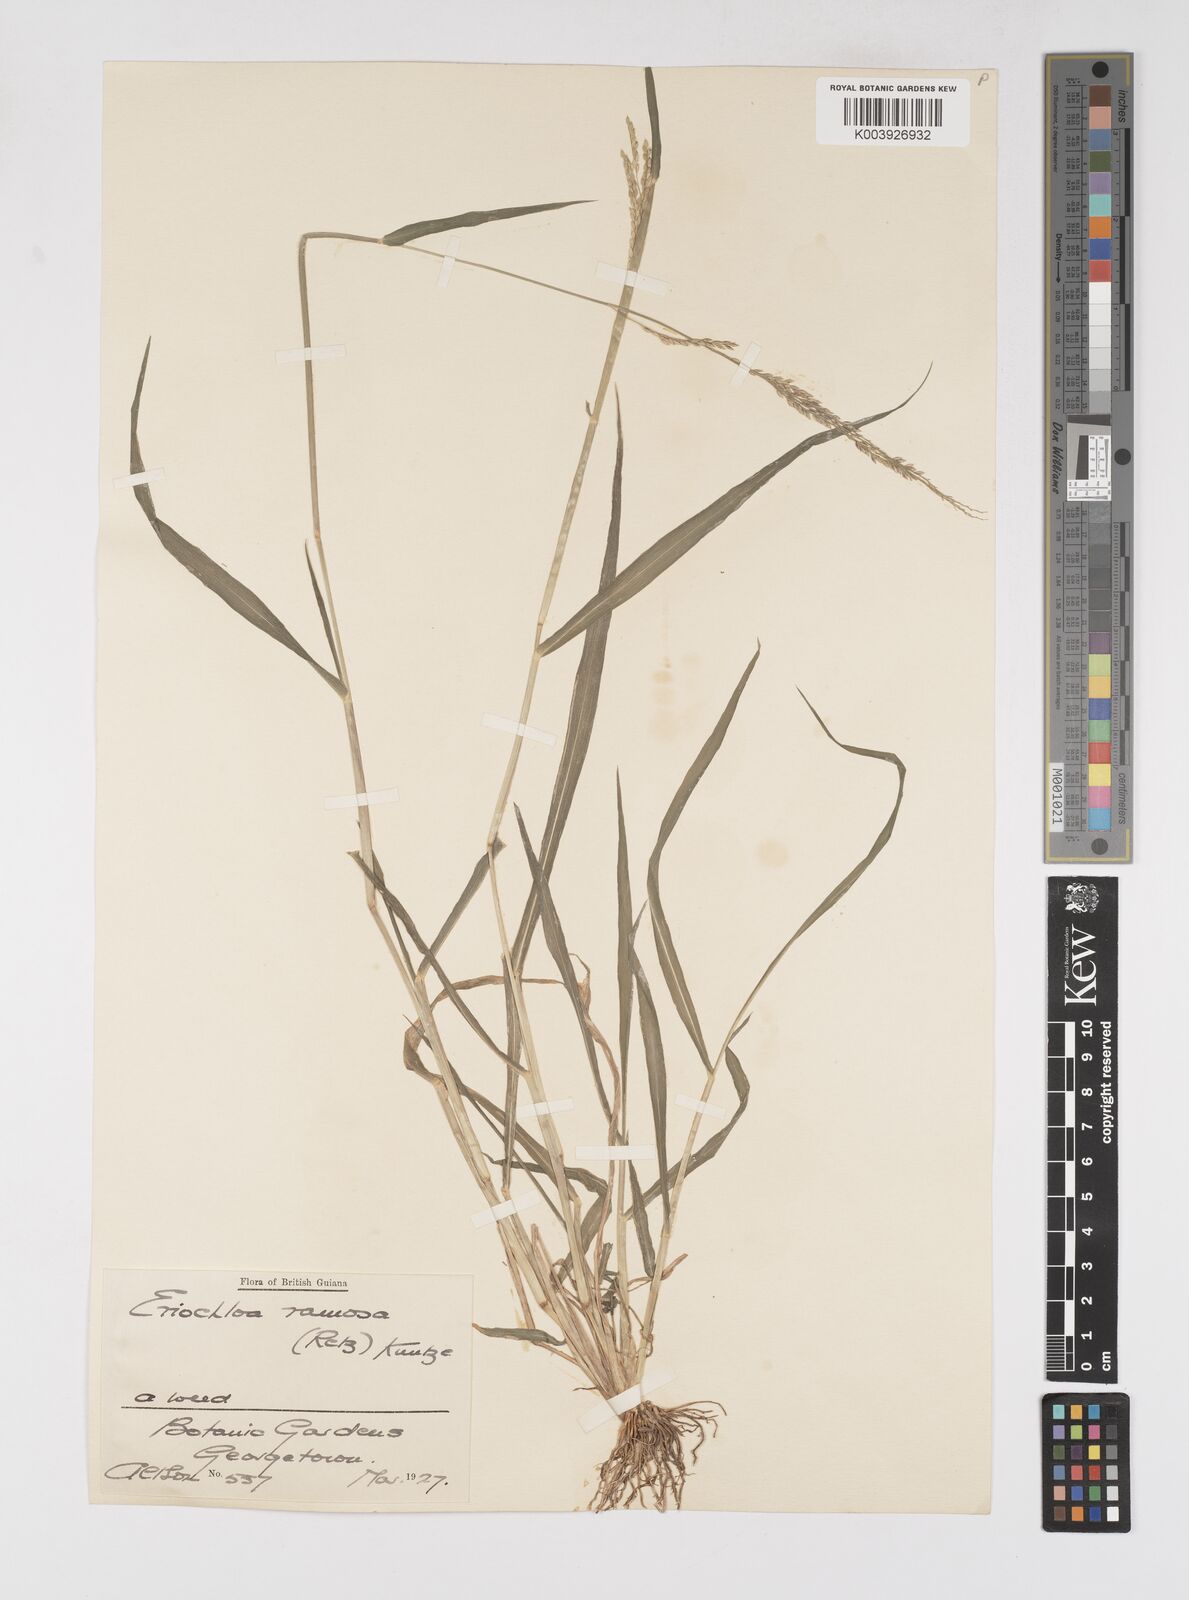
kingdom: Plantae
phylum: Tracheophyta
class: Liliopsida
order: Poales
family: Poaceae
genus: Eriochloa
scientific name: Eriochloa procera
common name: Spring grass
